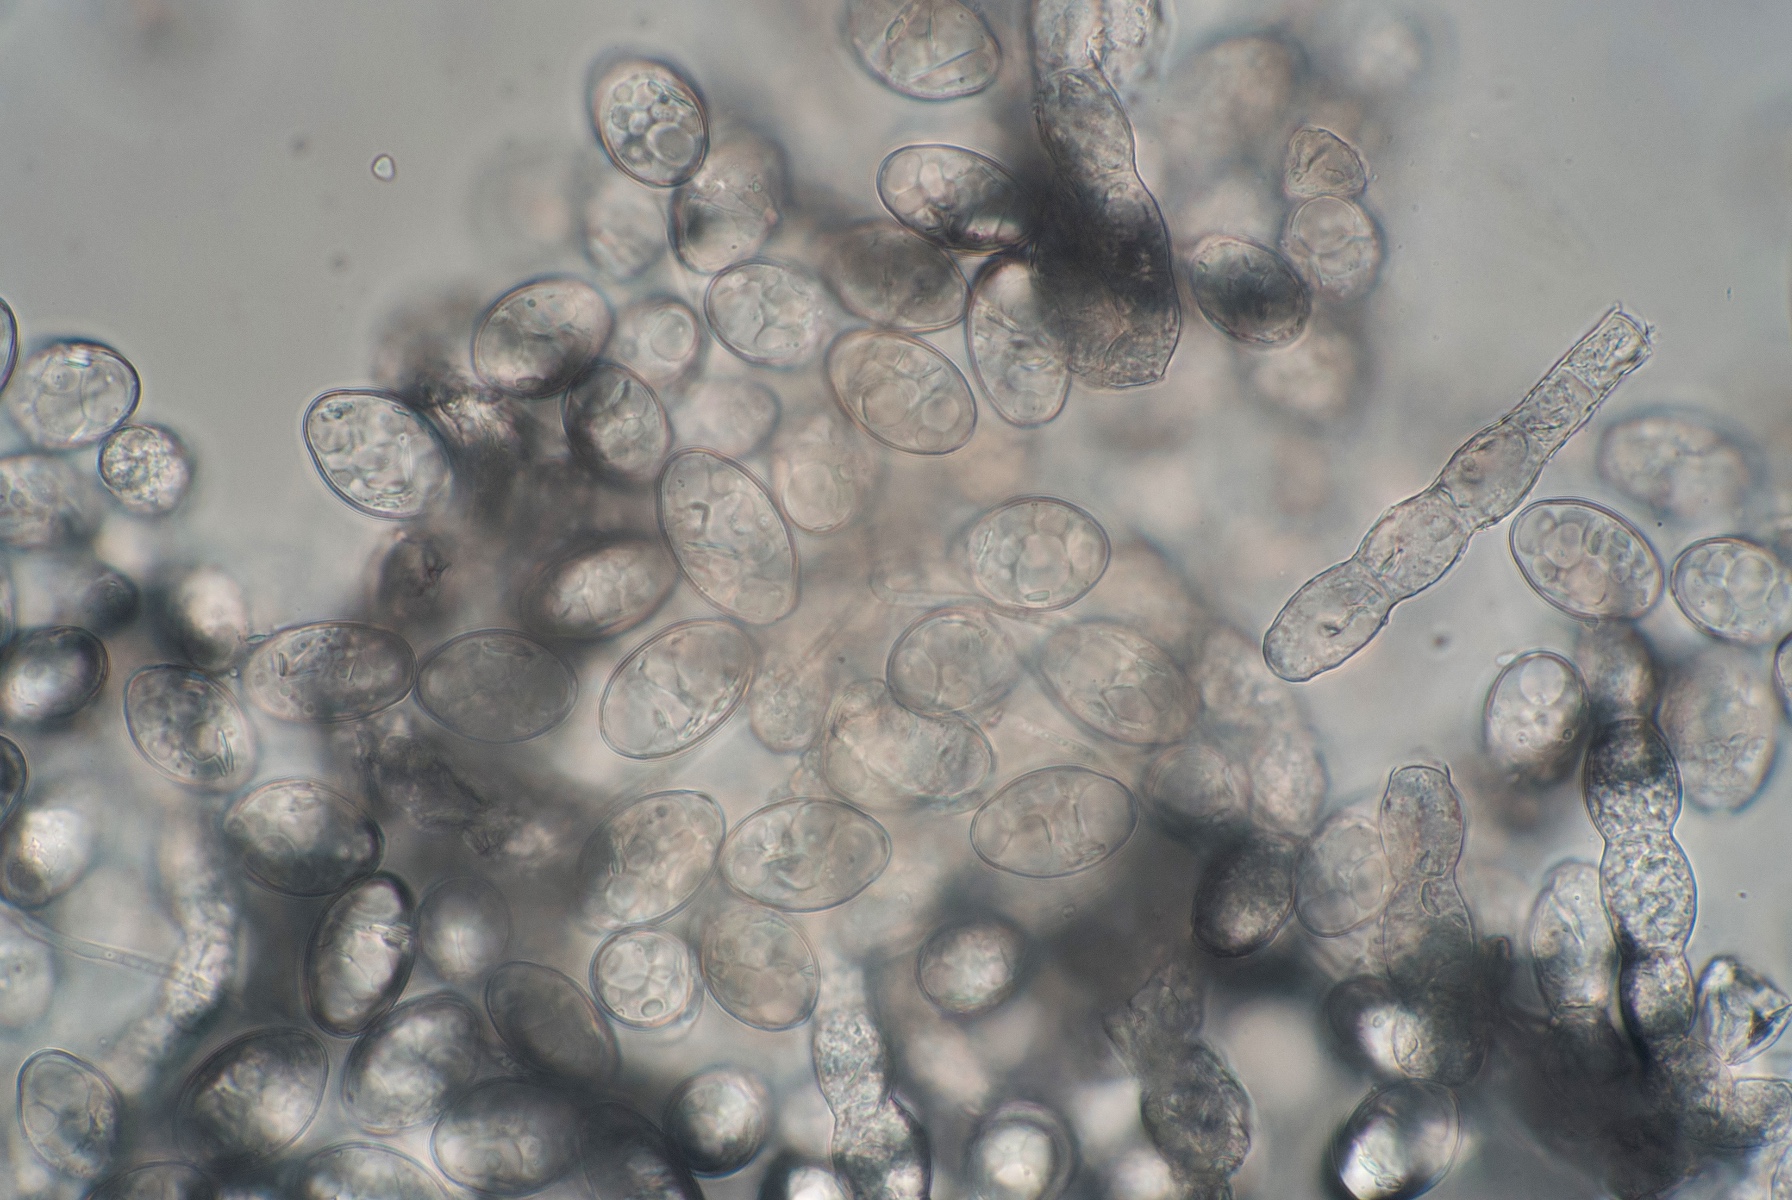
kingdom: Fungi
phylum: Ascomycota
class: Leotiomycetes
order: Helotiales
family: Erysiphaceae
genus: Podosphaera
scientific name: Podosphaera epilobii
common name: dueurt-meldug
